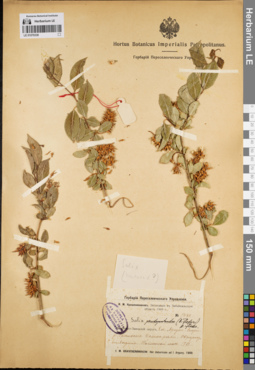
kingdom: Plantae
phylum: Tracheophyta
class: Magnoliopsida
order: Malpighiales
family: Salicaceae
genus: Salix
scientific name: Salix pseudopentandra
